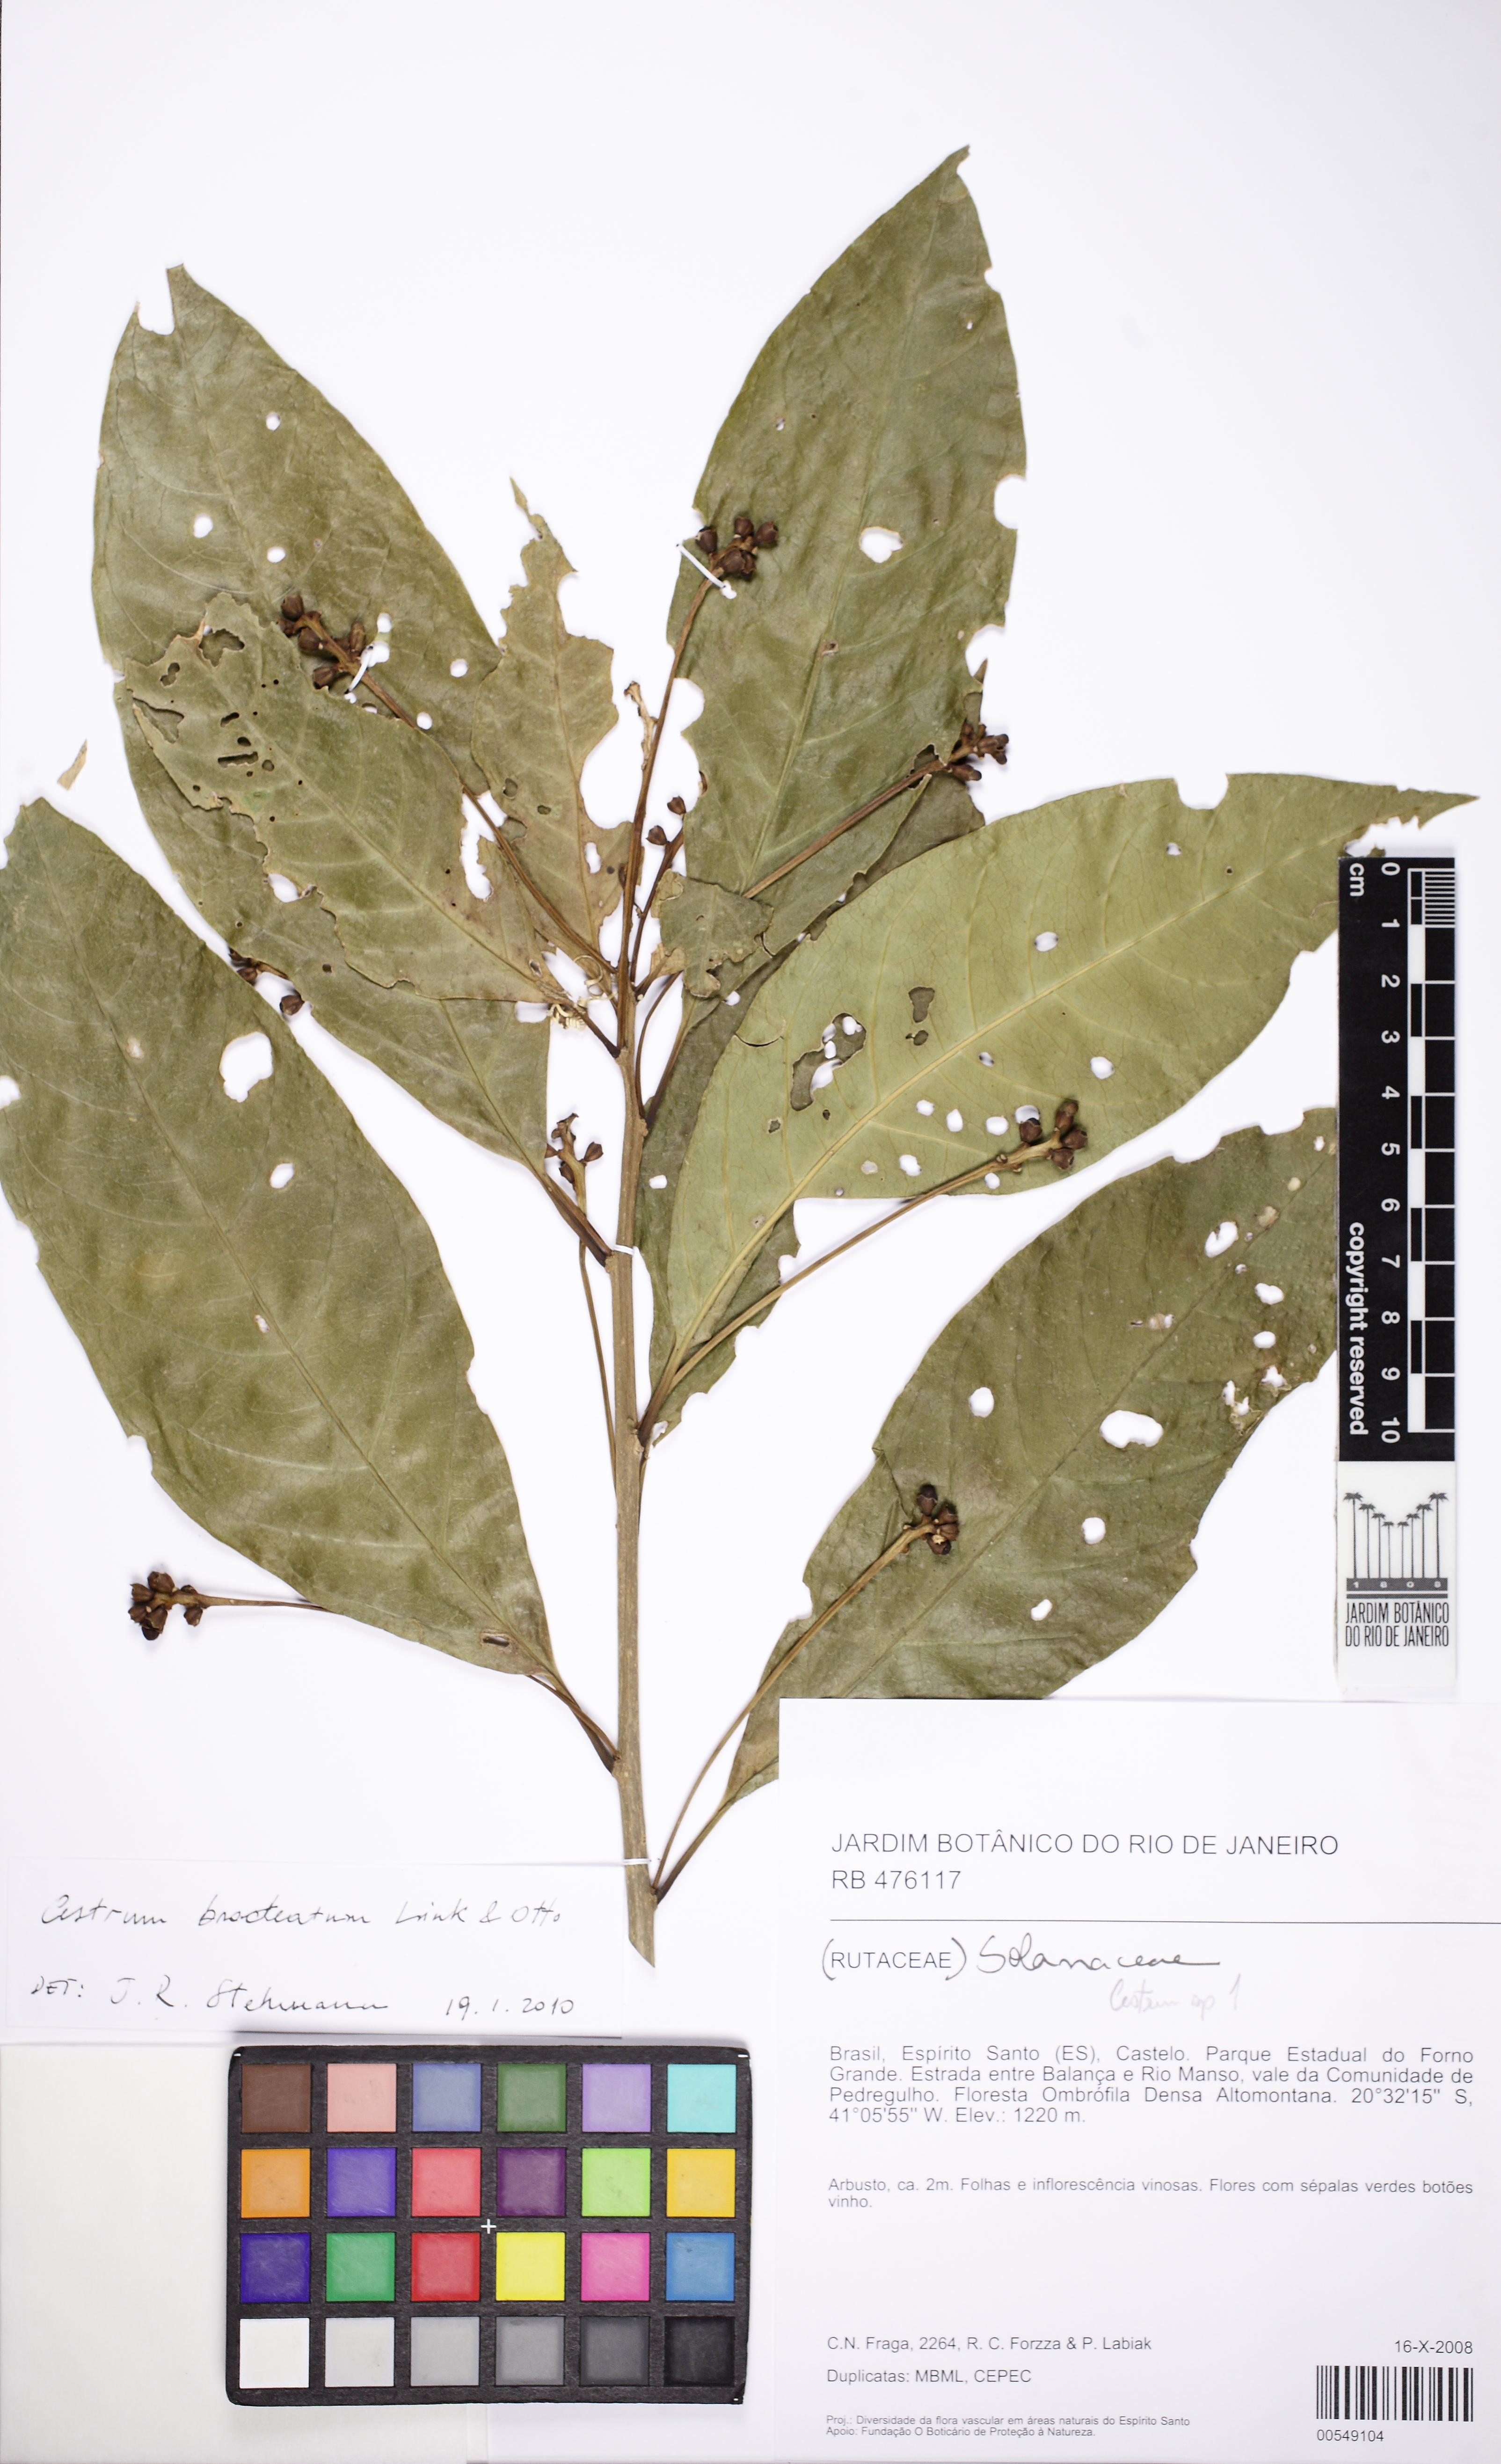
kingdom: Plantae
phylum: Tracheophyta
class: Magnoliopsida
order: Solanales
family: Solanaceae
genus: Cestrum
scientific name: Cestrum bracteatum
